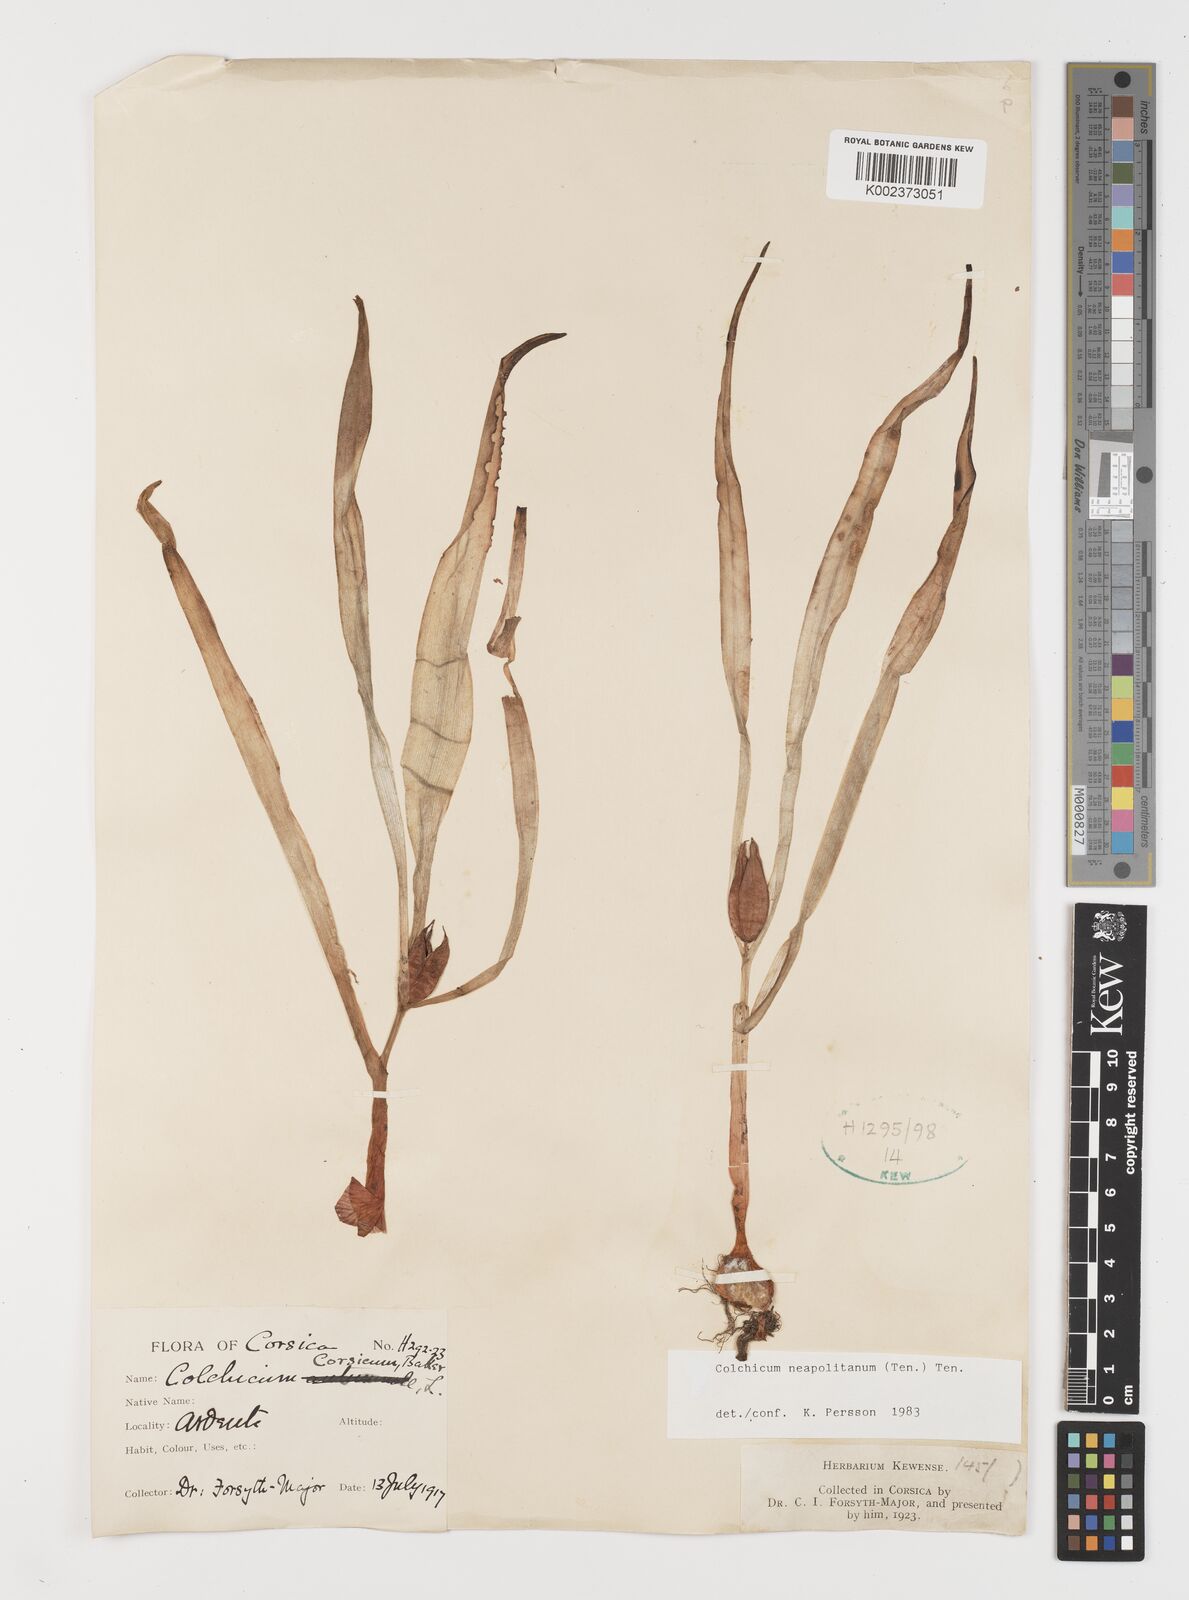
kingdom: Plantae
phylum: Tracheophyta
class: Liliopsida
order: Liliales
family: Colchicaceae
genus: Colchicum
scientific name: Colchicum neapolitanum
